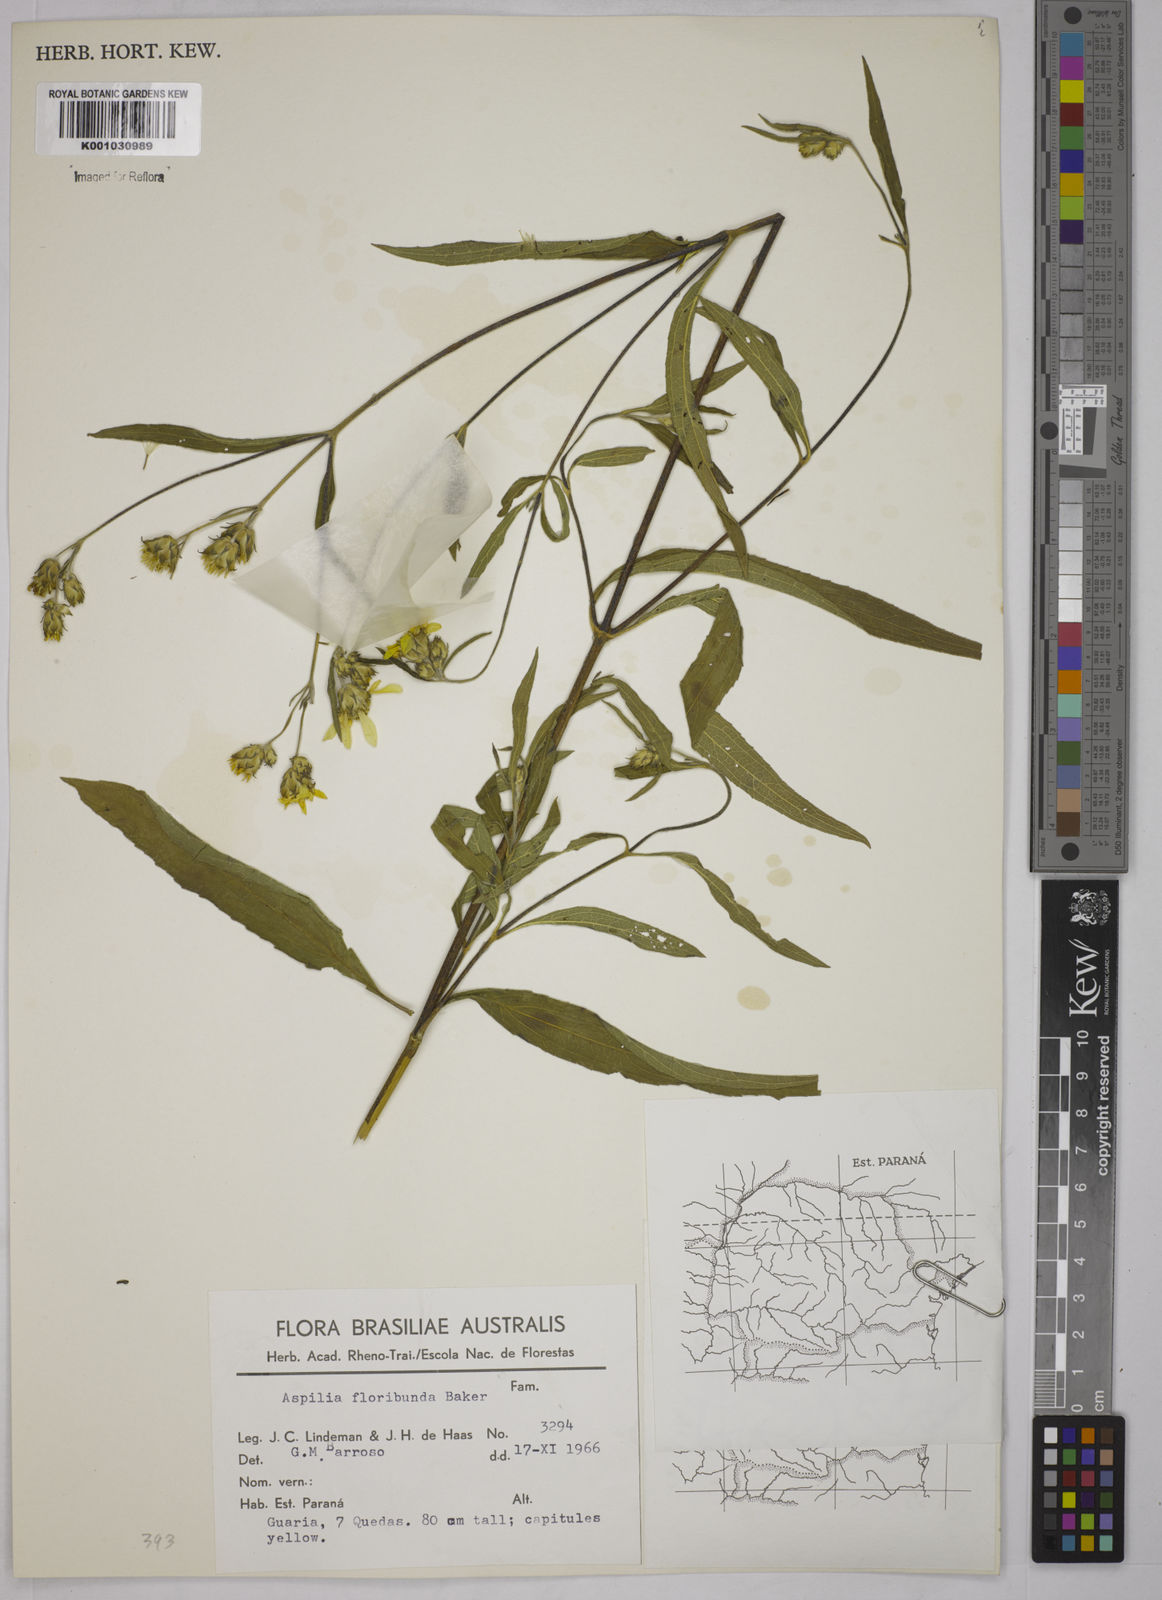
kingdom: Plantae
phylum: Tracheophyta
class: Magnoliopsida
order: Asterales
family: Asteraceae
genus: Wedelia
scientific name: Wedelia floribunda
